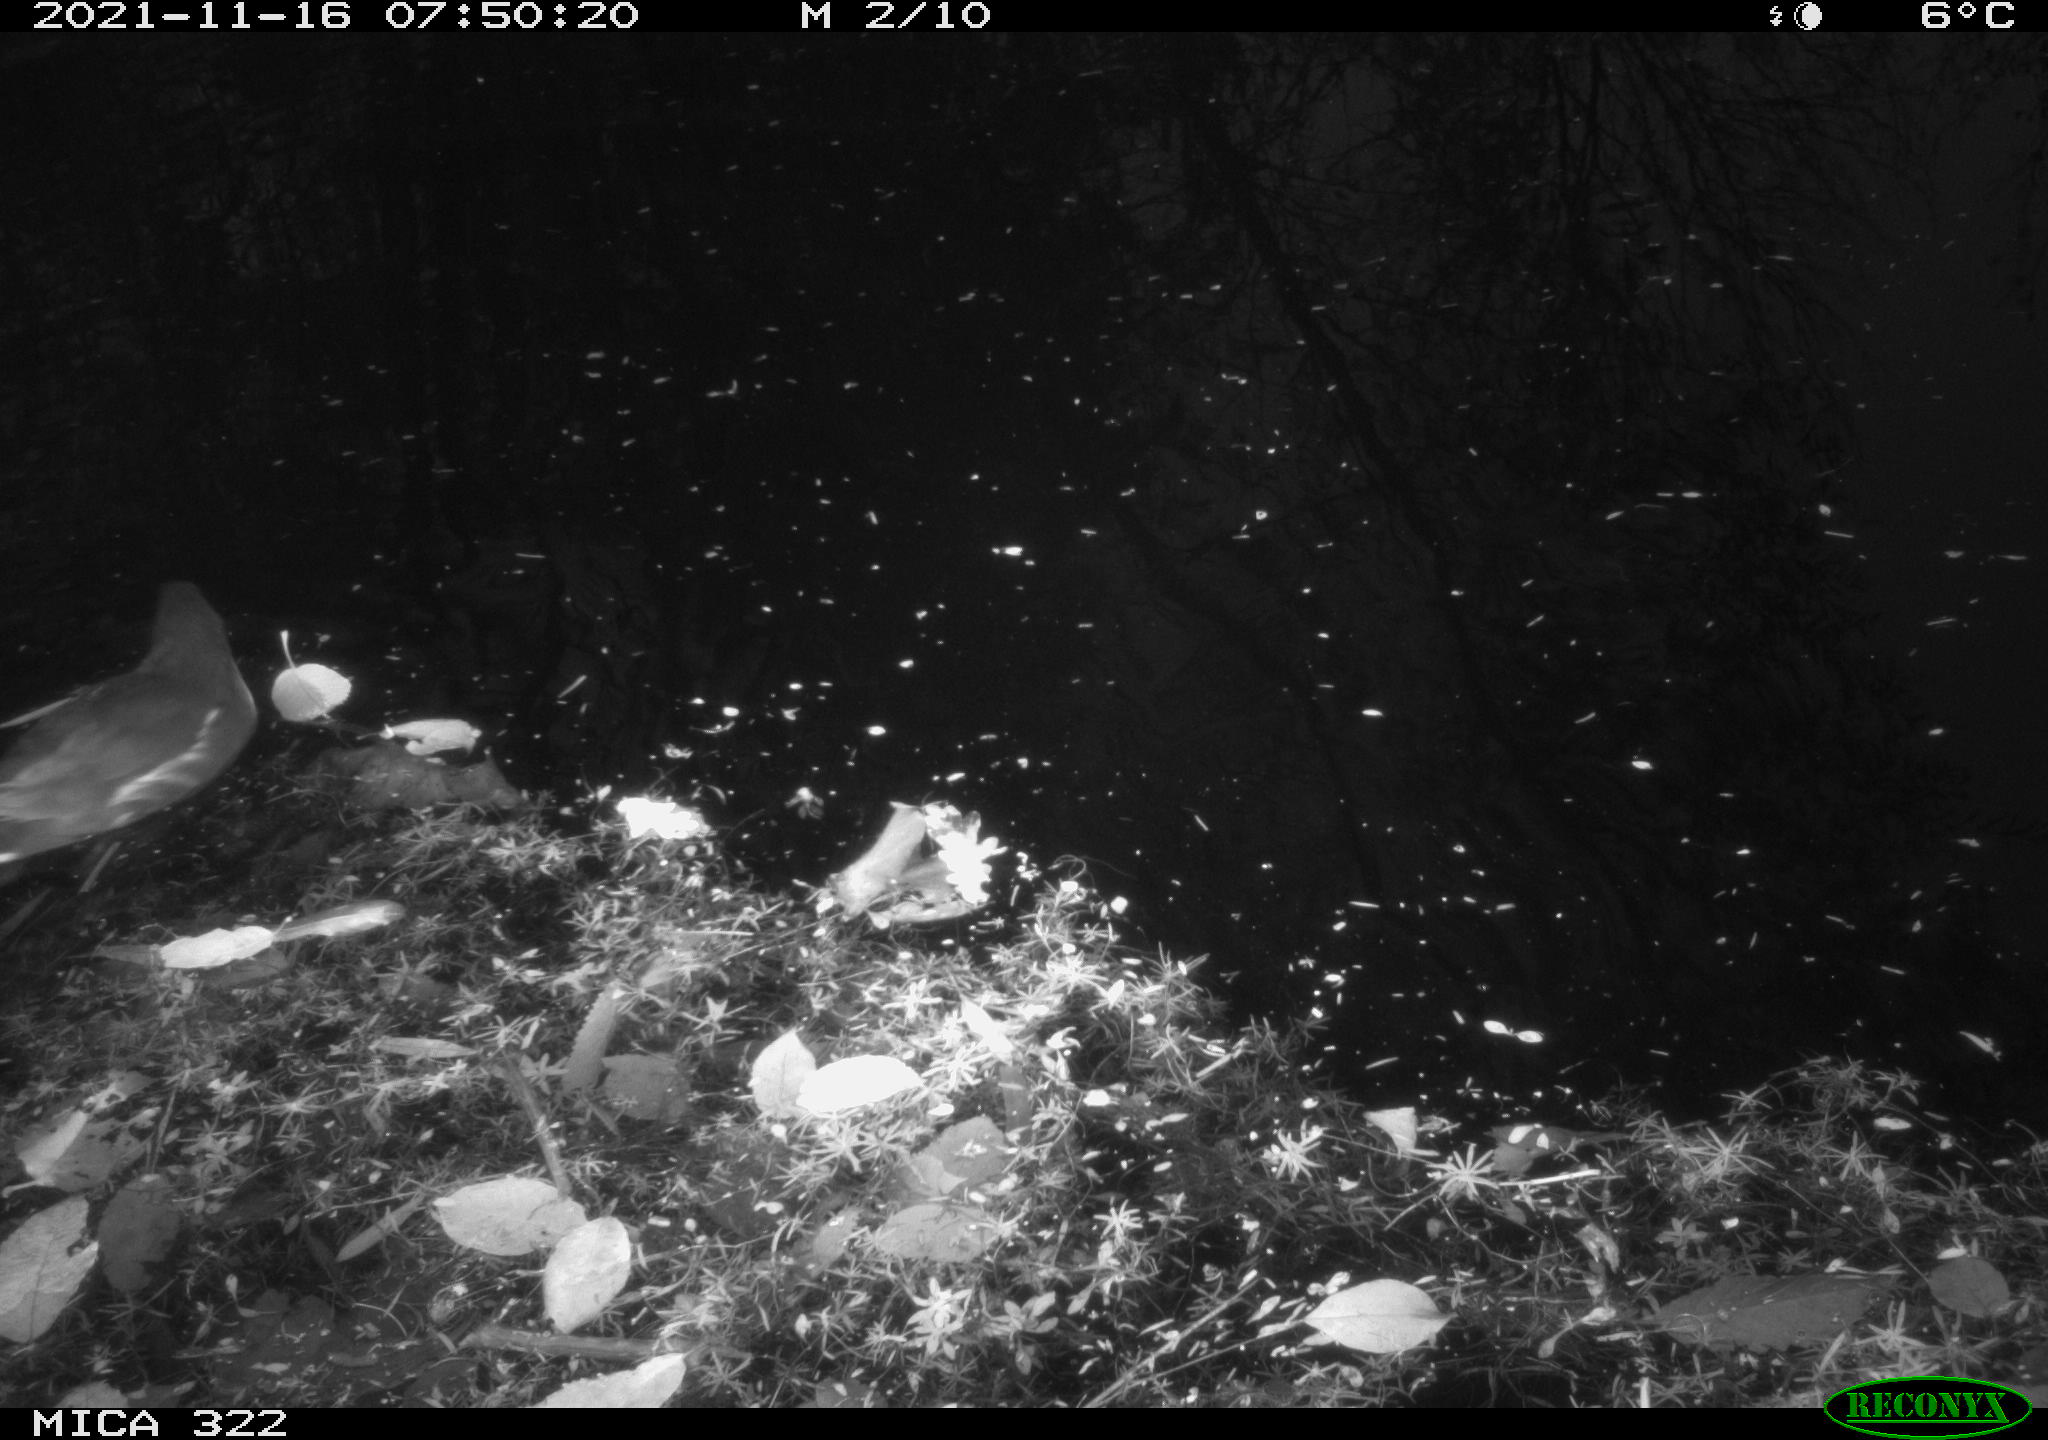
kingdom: Animalia
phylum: Chordata
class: Aves
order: Gruiformes
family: Rallidae
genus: Gallinula
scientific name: Gallinula chloropus
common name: Common moorhen
